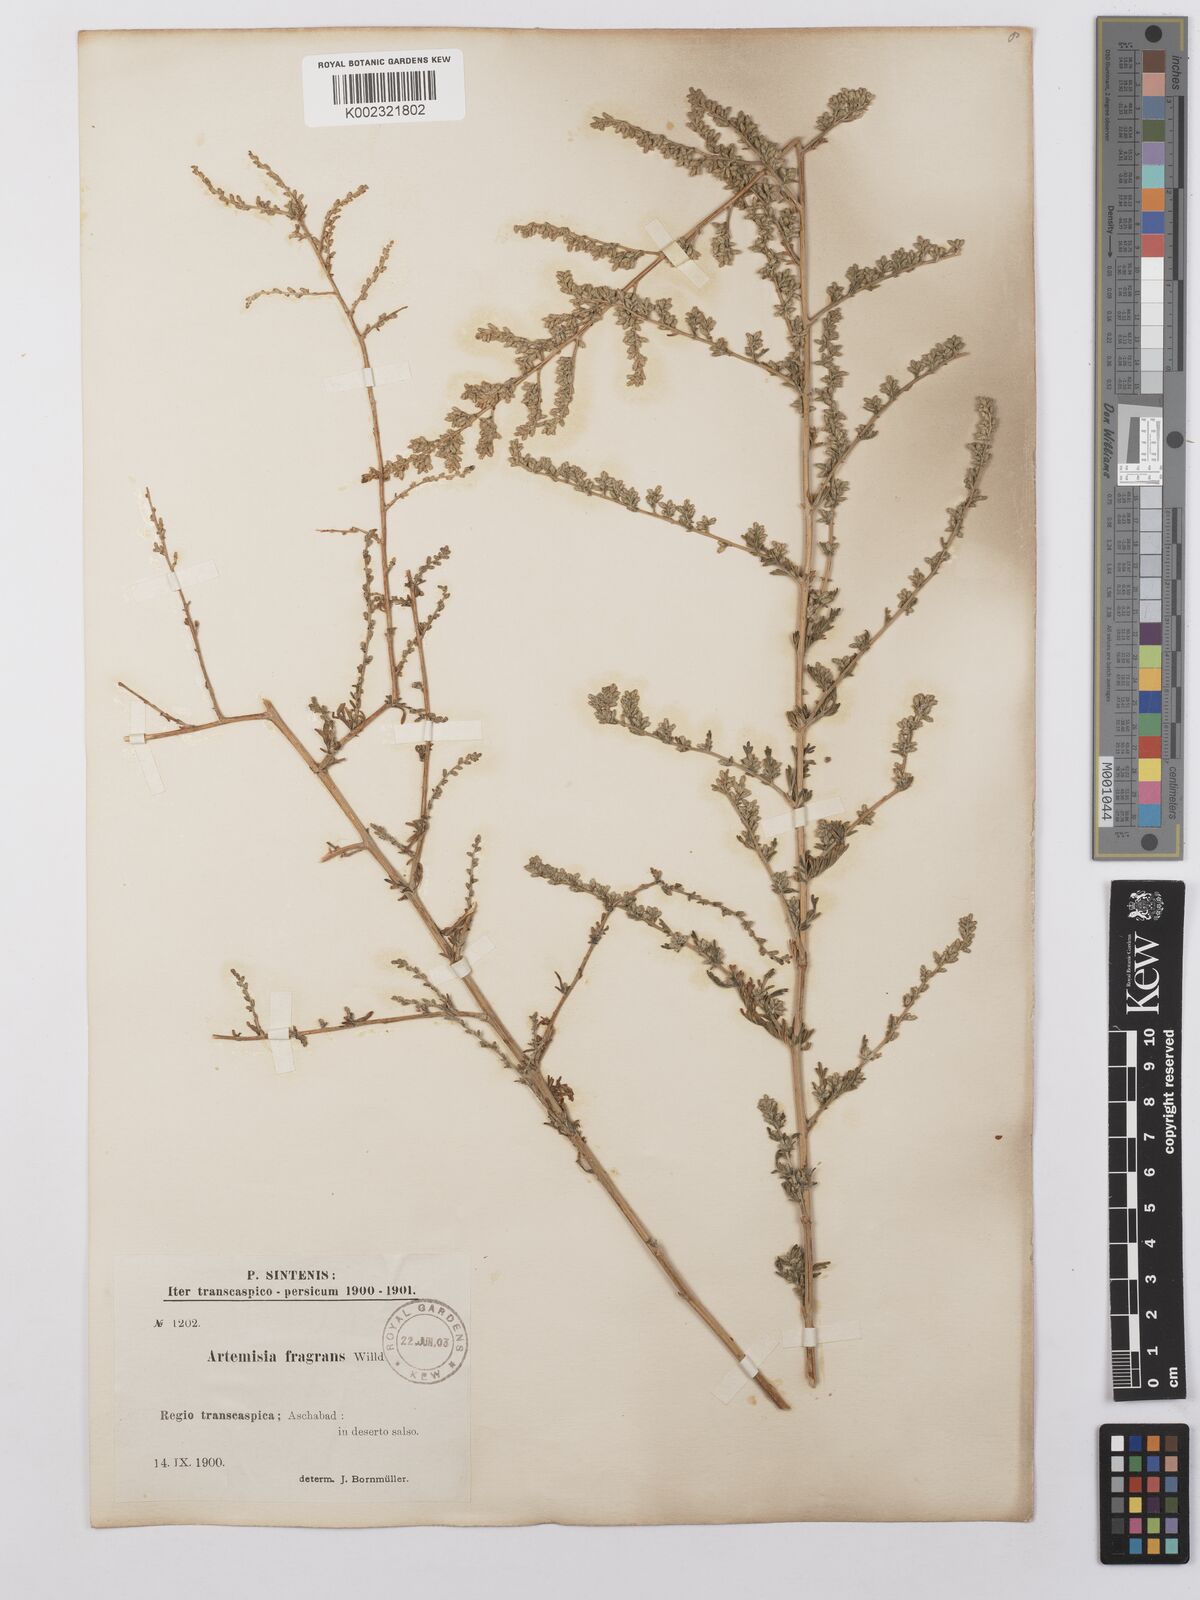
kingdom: Plantae
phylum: Tracheophyta
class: Magnoliopsida
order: Asterales
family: Asteraceae
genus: Artemisia
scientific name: Artemisia fragrans
